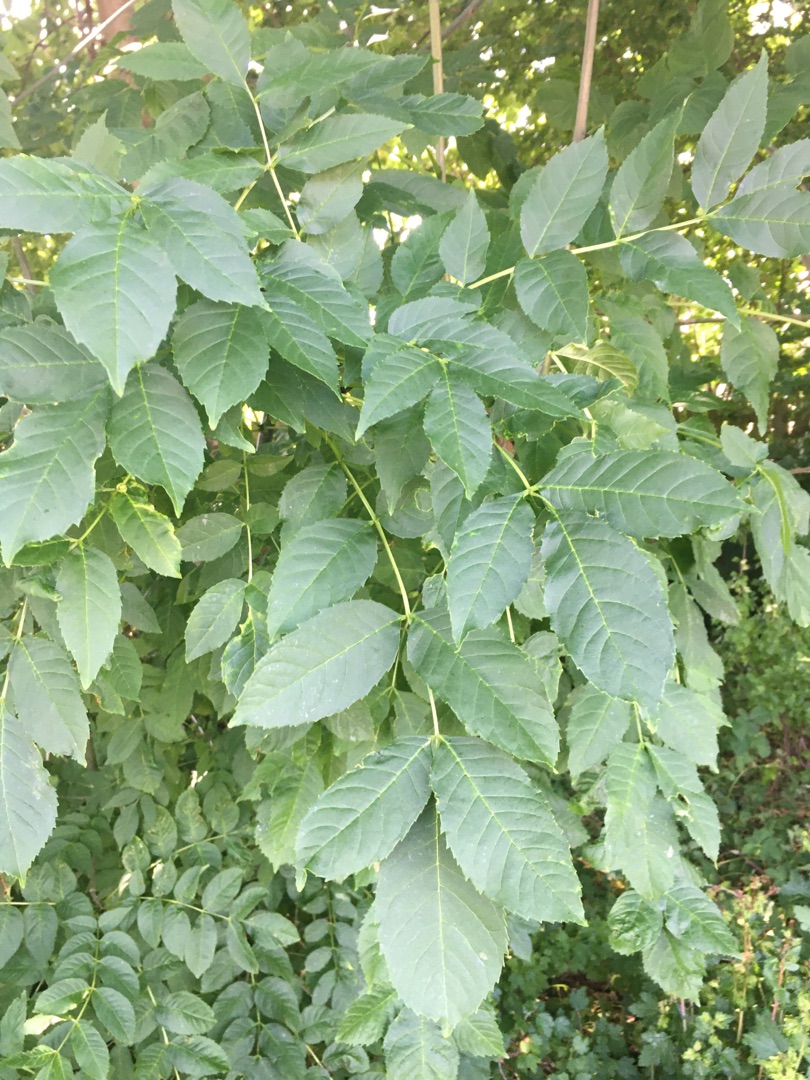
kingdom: Plantae
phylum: Tracheophyta
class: Magnoliopsida
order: Lamiales
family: Oleaceae
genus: Fraxinus
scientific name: Fraxinus excelsior
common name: Ask
